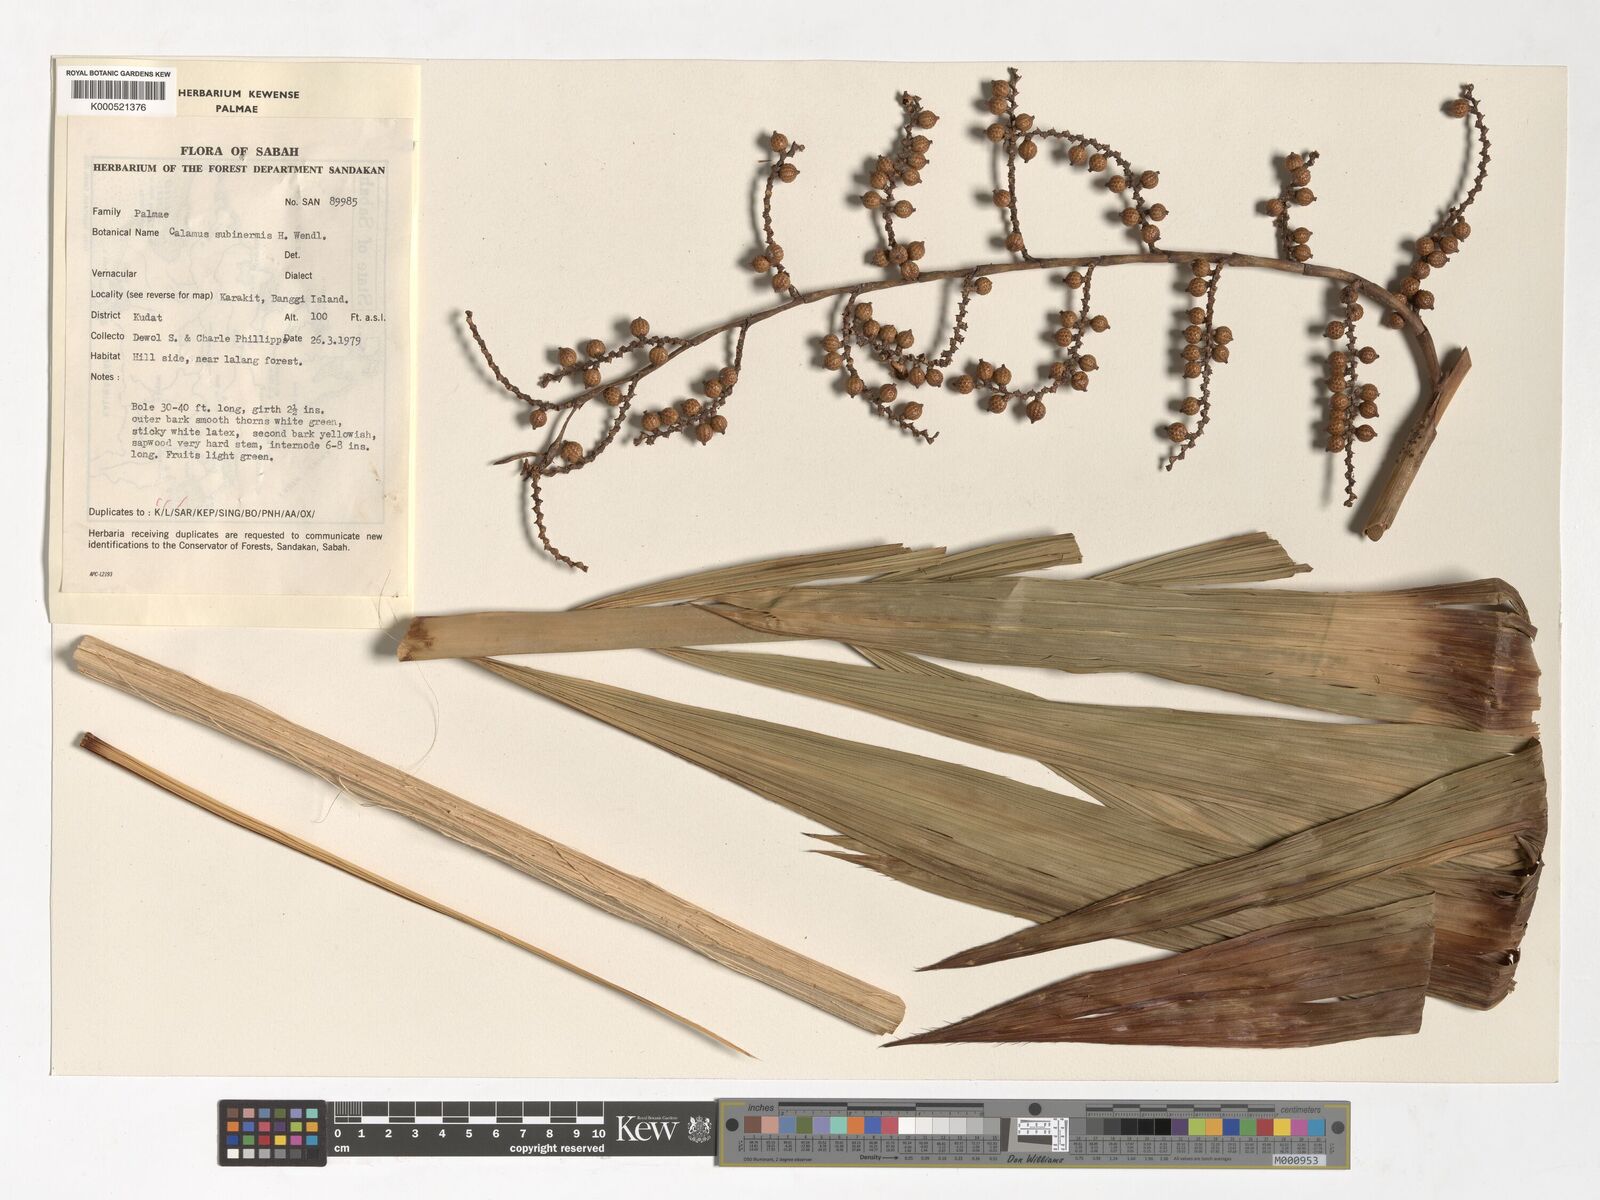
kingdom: Plantae
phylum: Tracheophyta
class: Liliopsida
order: Arecales
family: Arecaceae
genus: Calamus
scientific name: Calamus moseleyanus
